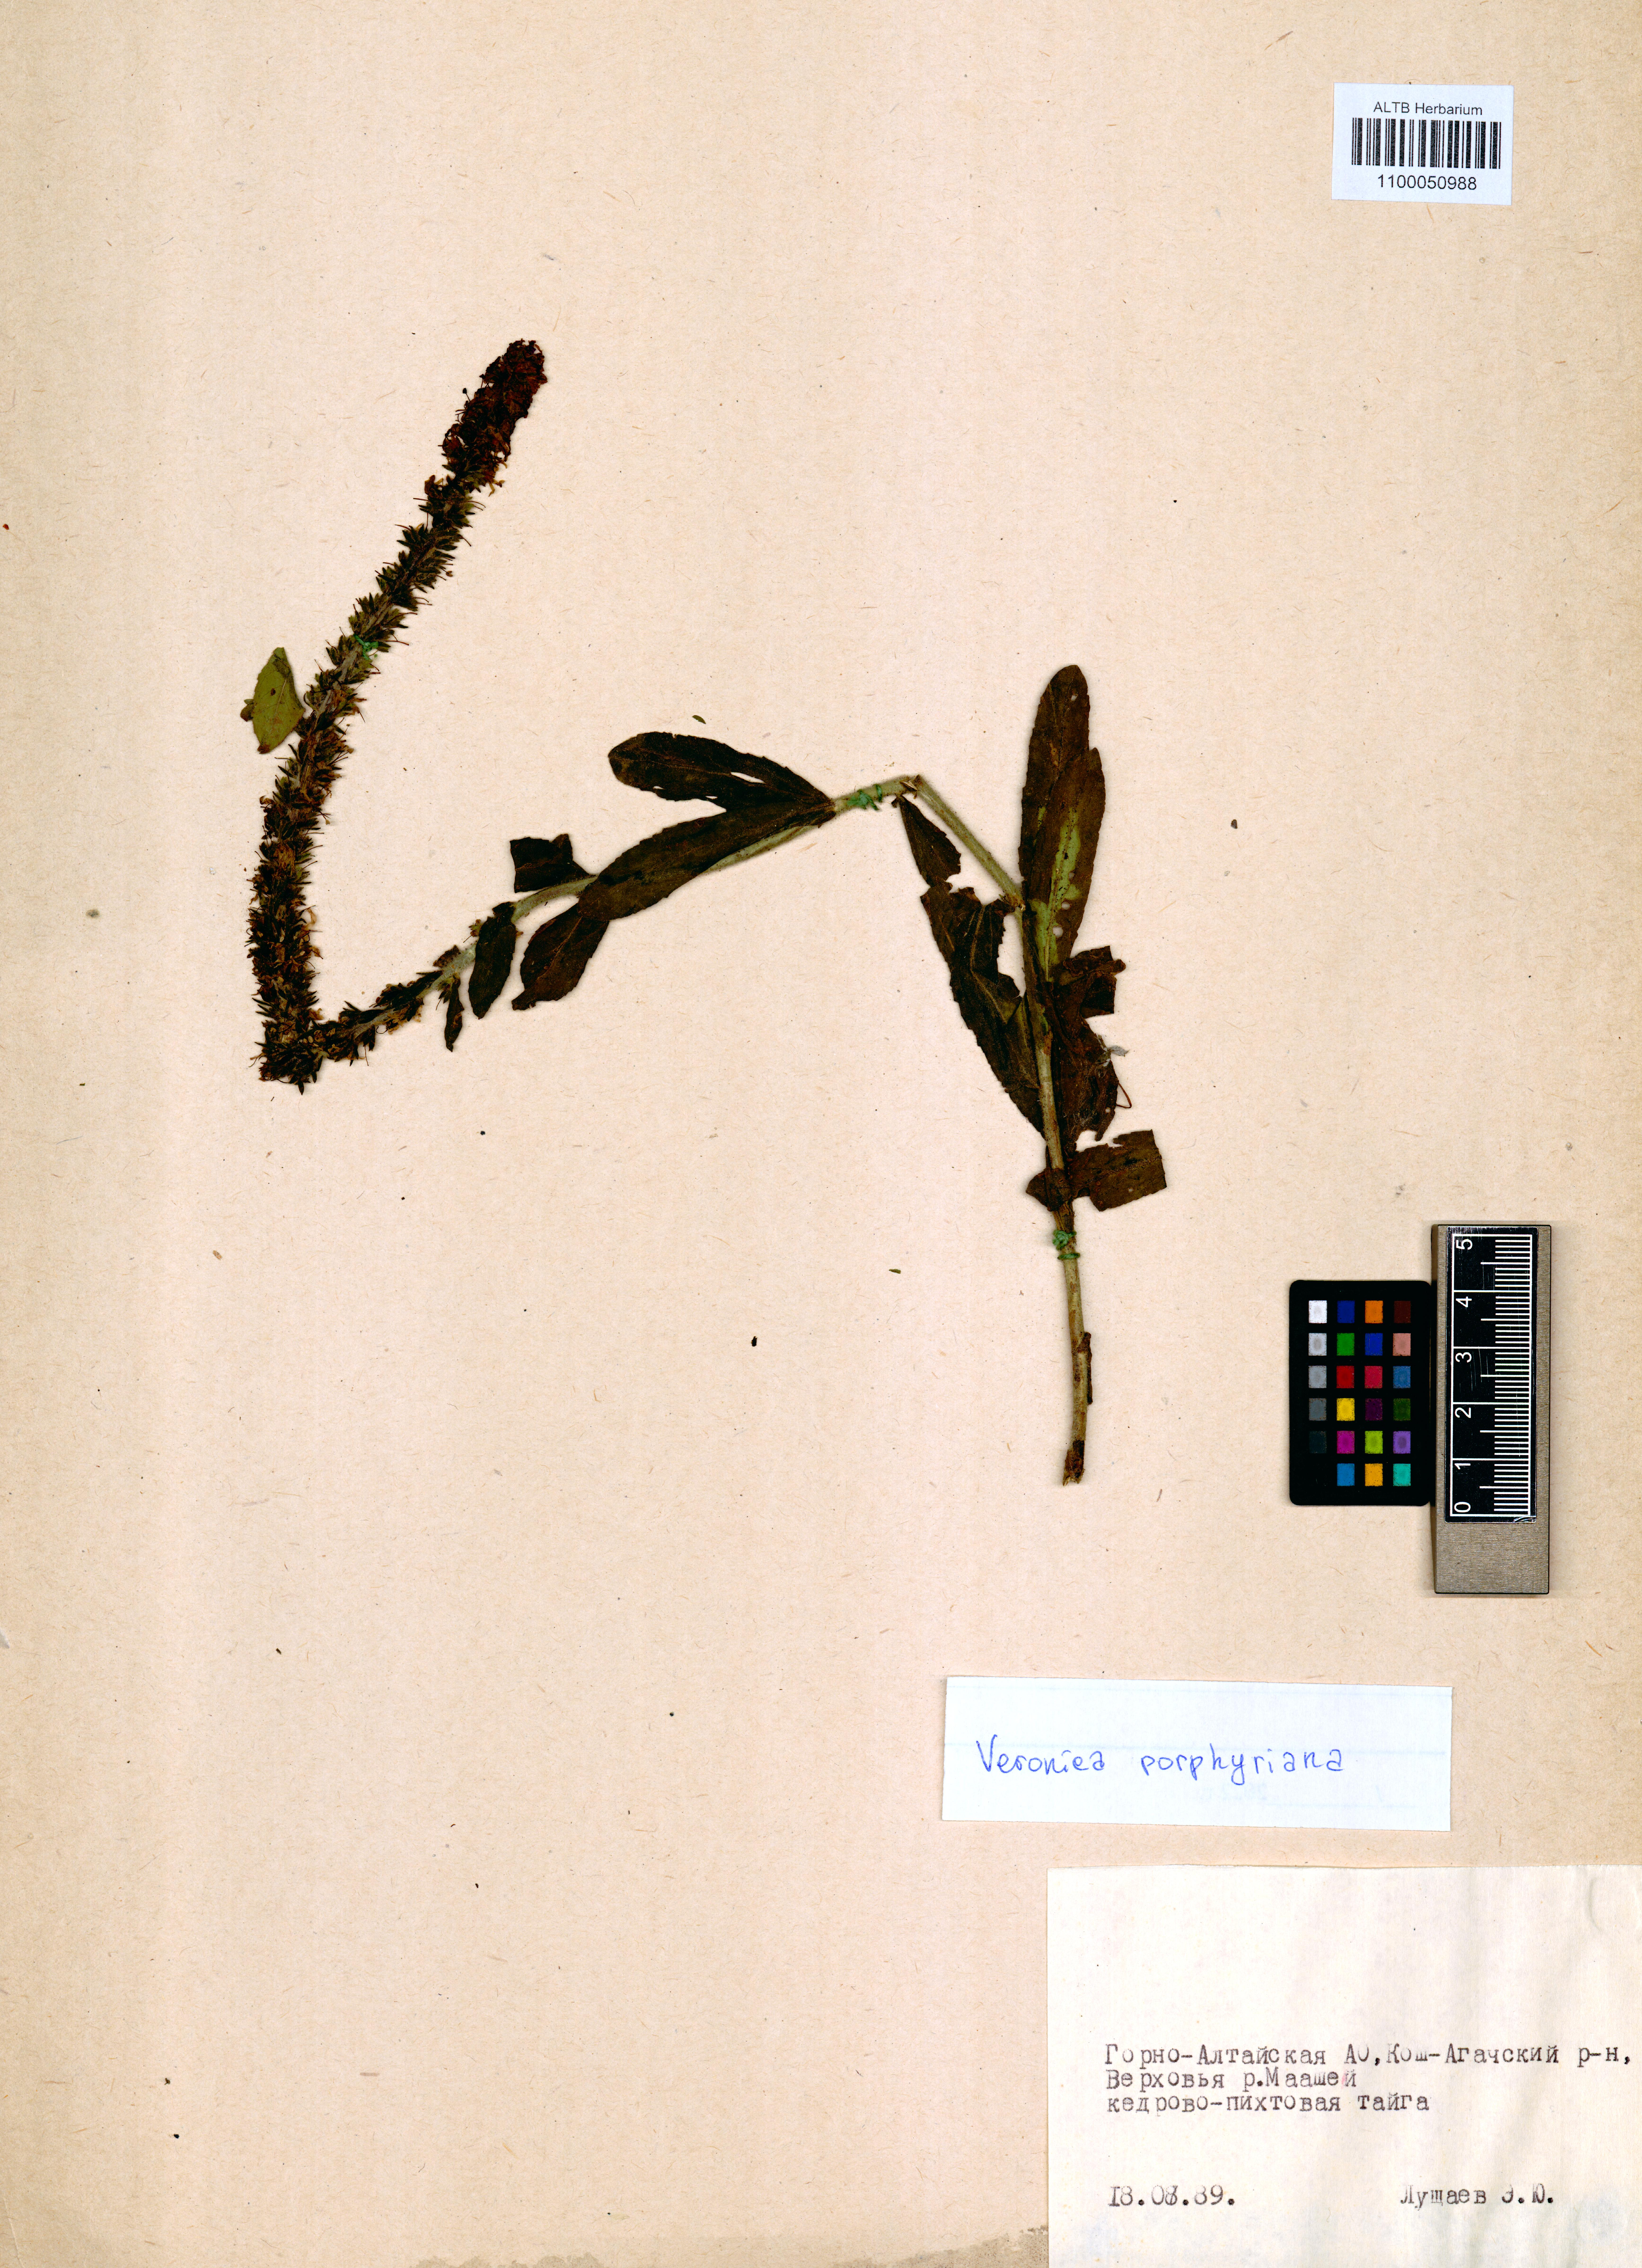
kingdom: Plantae
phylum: Tracheophyta
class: Magnoliopsida
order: Lamiales
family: Plantaginaceae
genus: Veronica
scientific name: Veronica porphyriana
